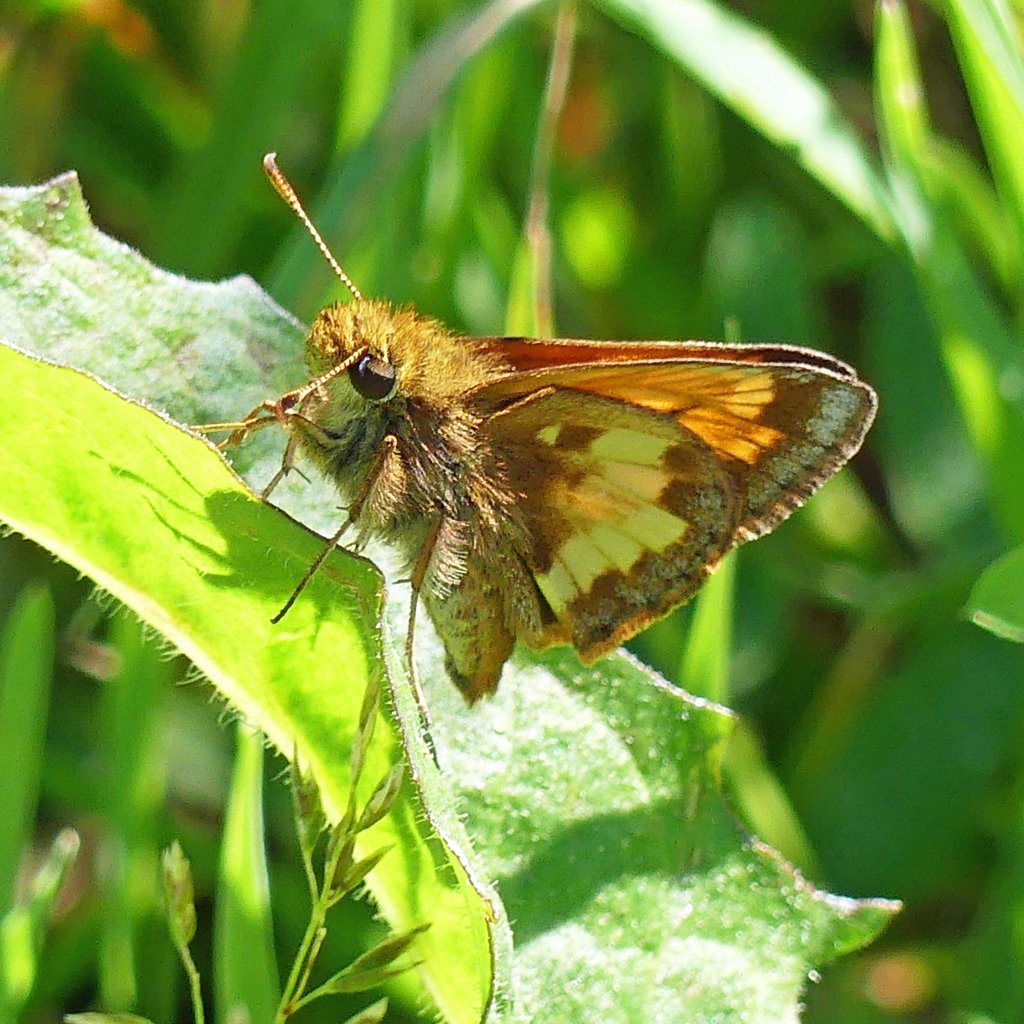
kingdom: Animalia
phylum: Arthropoda
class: Insecta
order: Lepidoptera
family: Hesperiidae
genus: Lon
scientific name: Lon hobomok
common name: Hobomok Skipper
